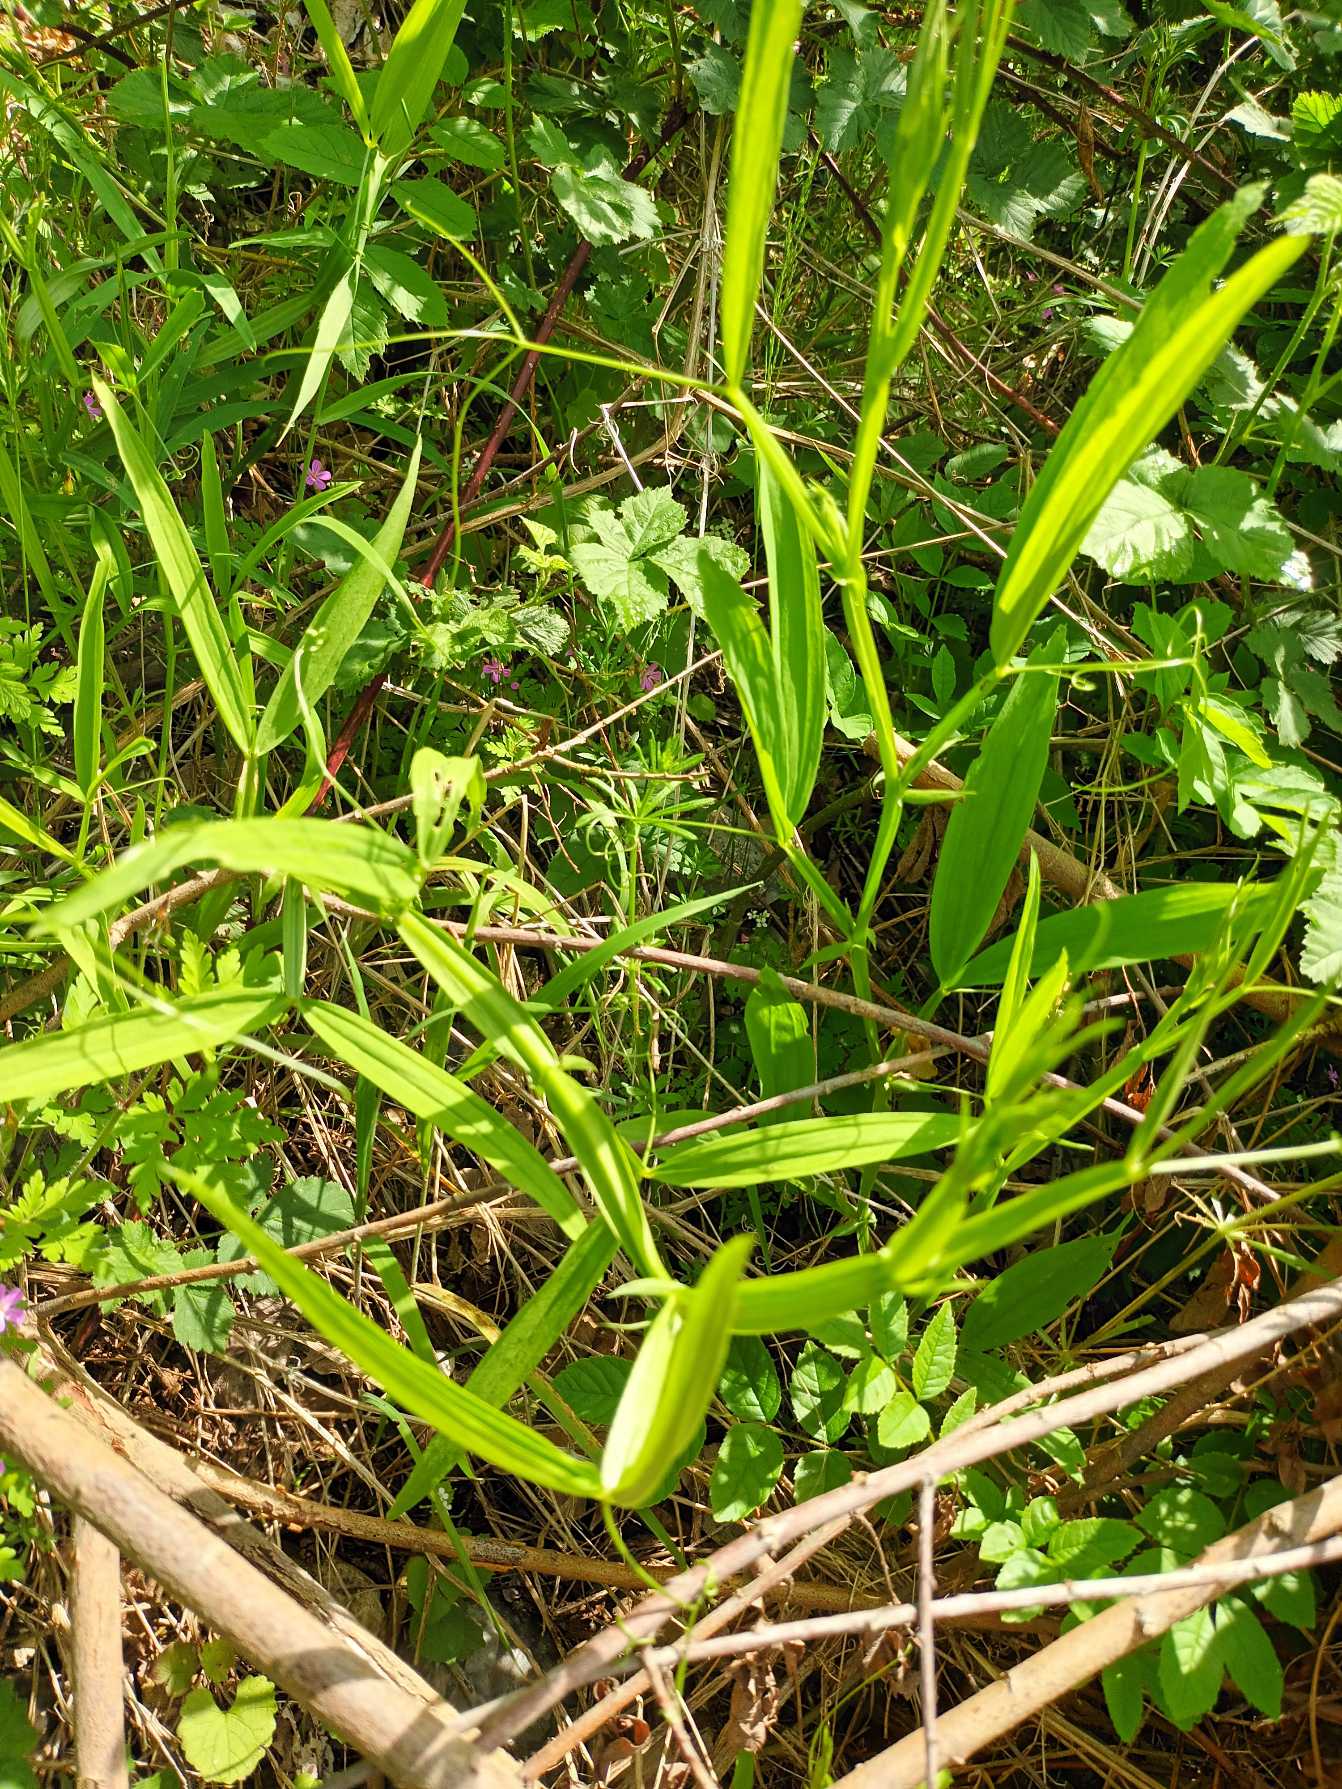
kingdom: Plantae
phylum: Tracheophyta
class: Magnoliopsida
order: Fabales
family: Fabaceae
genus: Lathyrus
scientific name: Lathyrus sylvestris
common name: Skov-fladbælg
